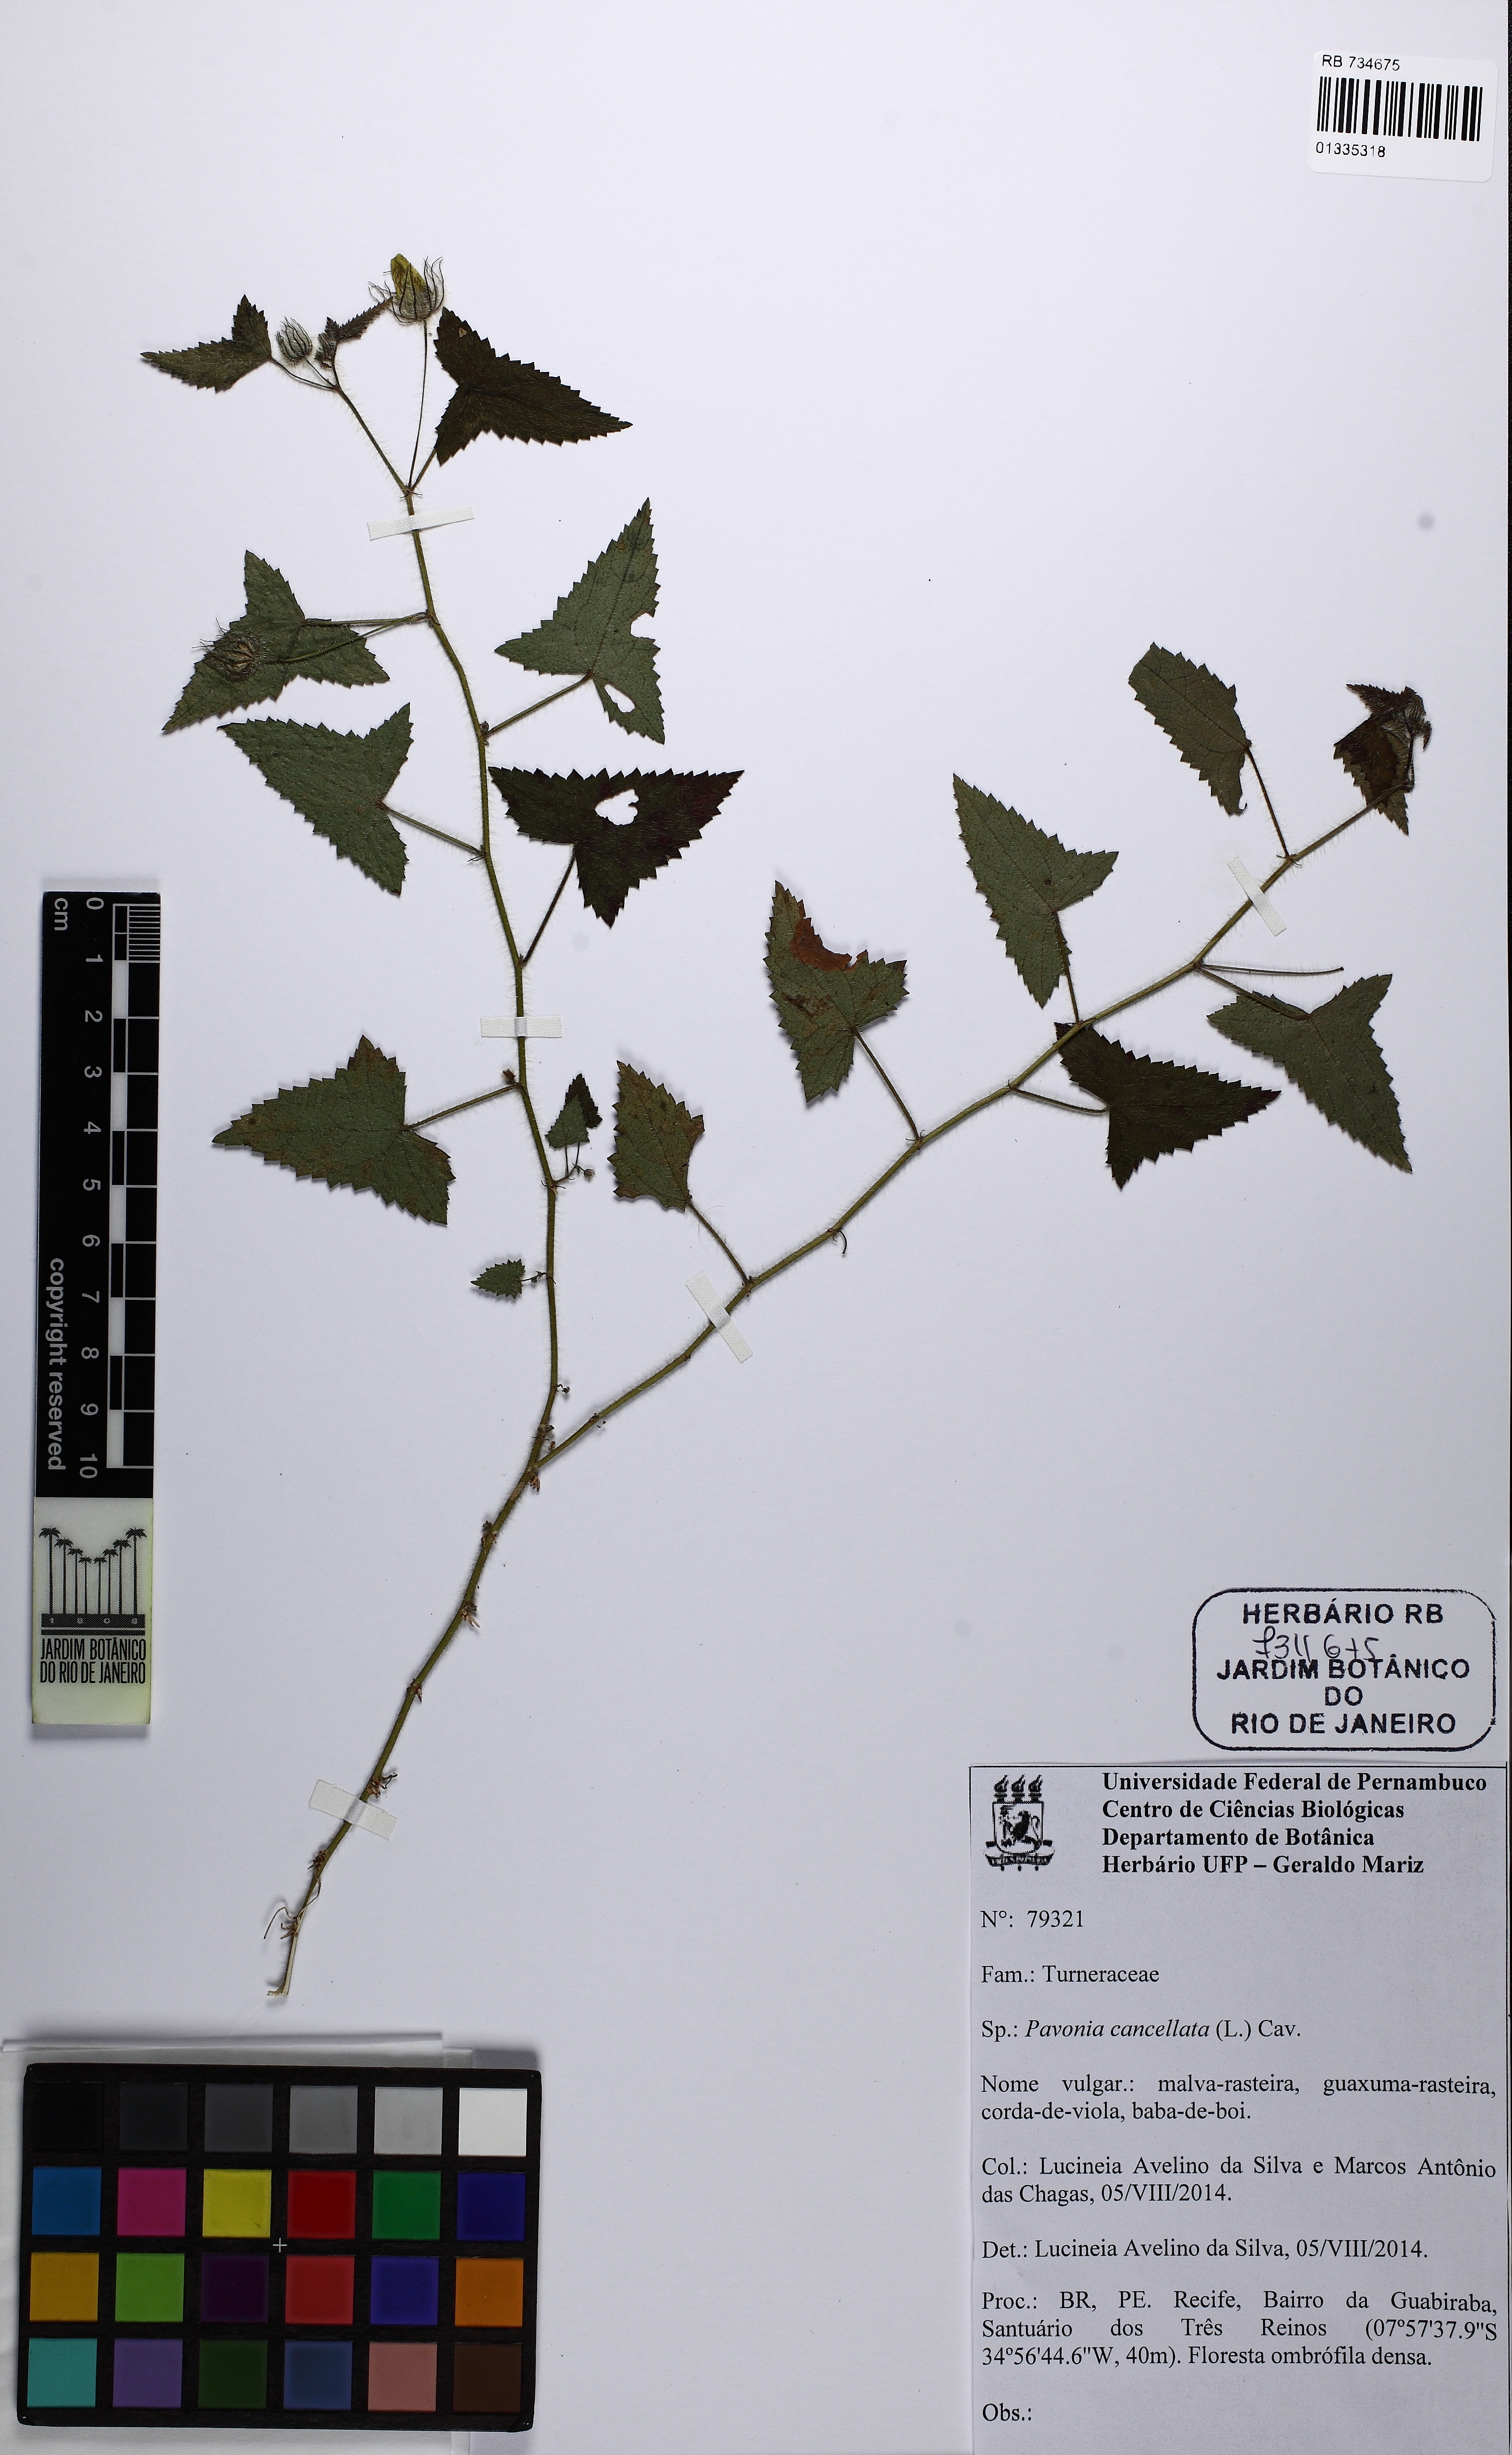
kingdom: Plantae
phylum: Tracheophyta
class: Magnoliopsida
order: Malvales
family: Malvaceae
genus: Pavonia
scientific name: Pavonia cancellata
